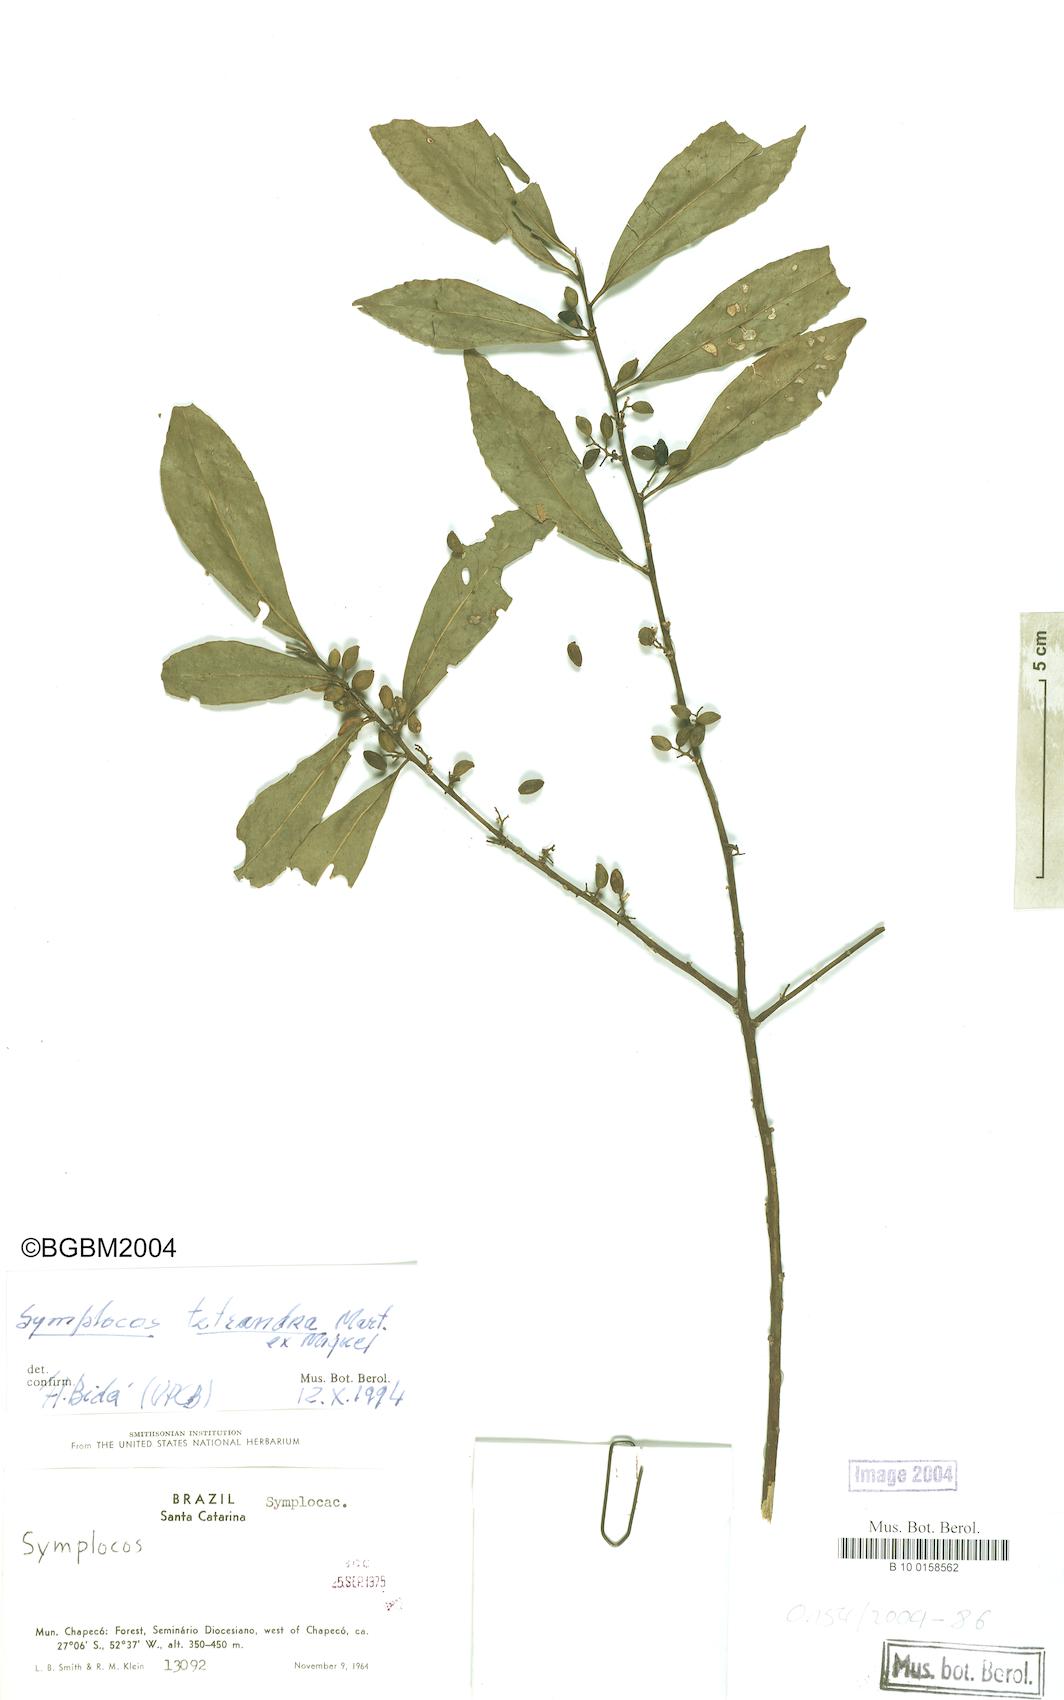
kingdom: Plantae
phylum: Tracheophyta
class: Magnoliopsida
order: Ericales
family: Symplocaceae
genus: Symplocos
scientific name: Symplocos tetrandra
